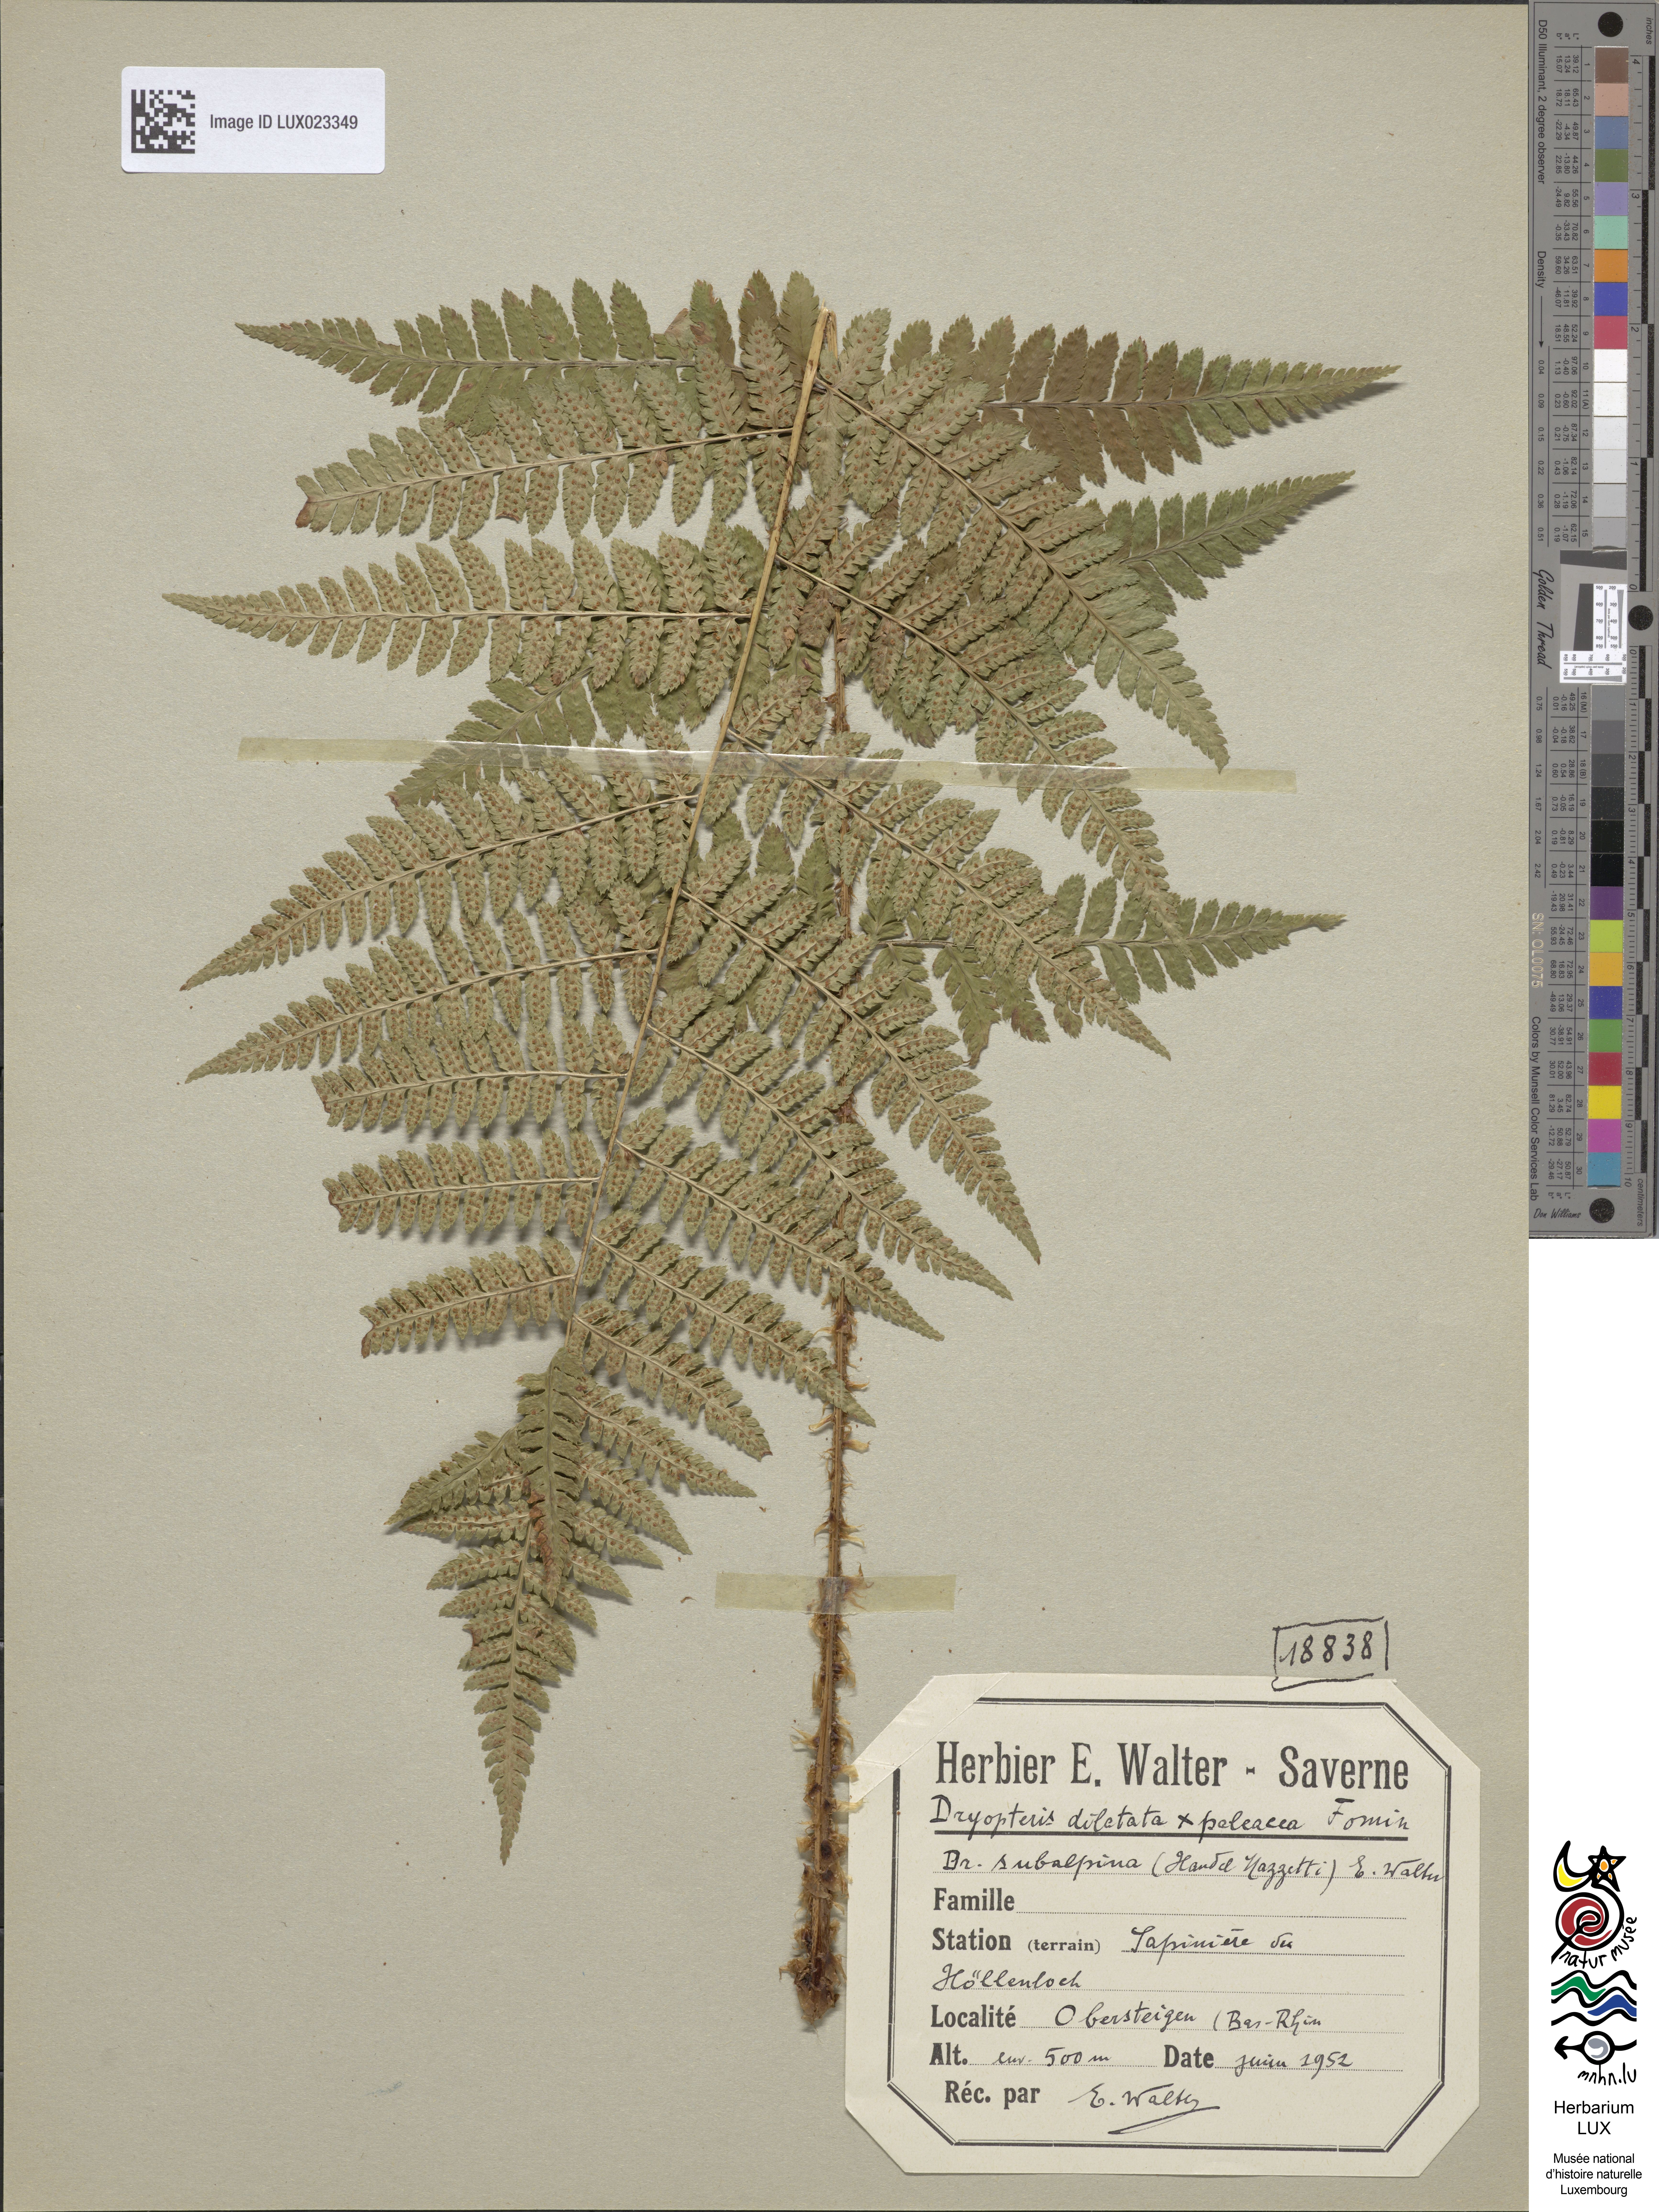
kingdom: Plantae
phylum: Tracheophyta
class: Polypodiopsida
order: Polypodiales
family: Dryopteridaceae
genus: Dryopteris
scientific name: Dryopteris woynarii
